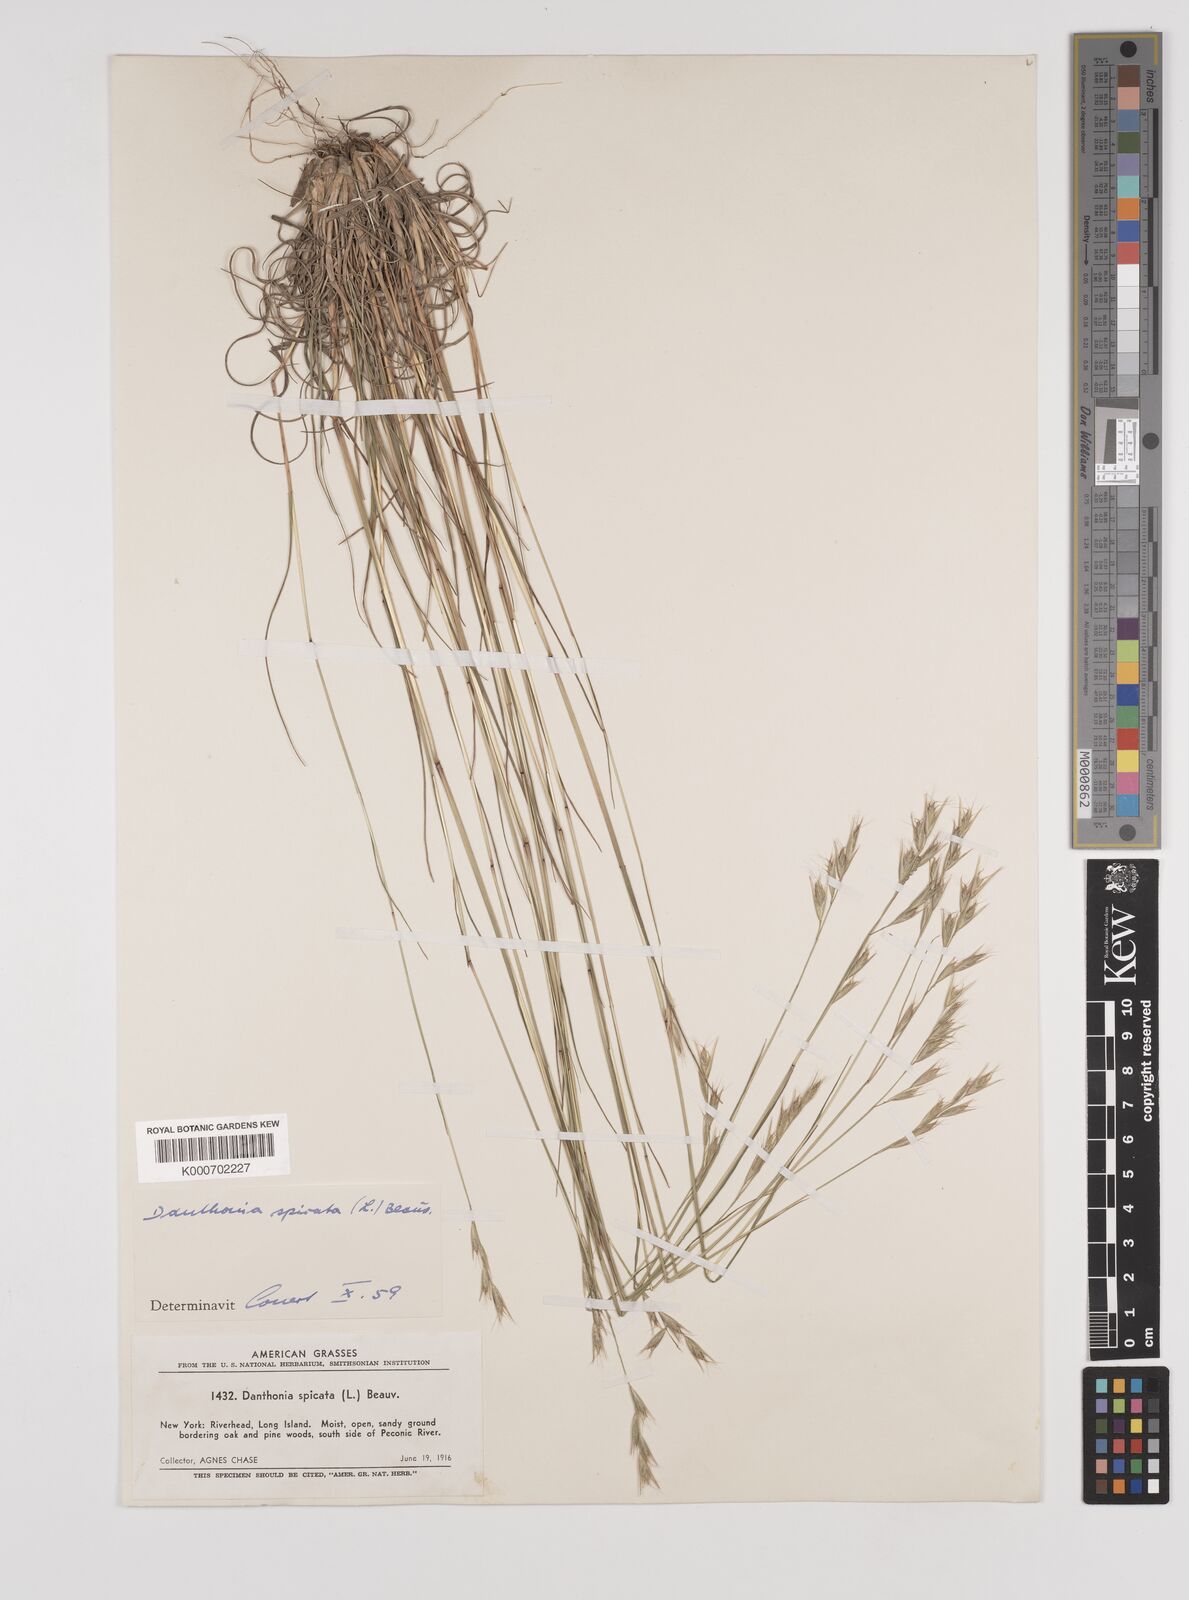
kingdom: Plantae
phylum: Tracheophyta
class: Liliopsida
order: Poales
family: Poaceae
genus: Danthonia
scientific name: Danthonia spicata
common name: Common wild oatgrass
